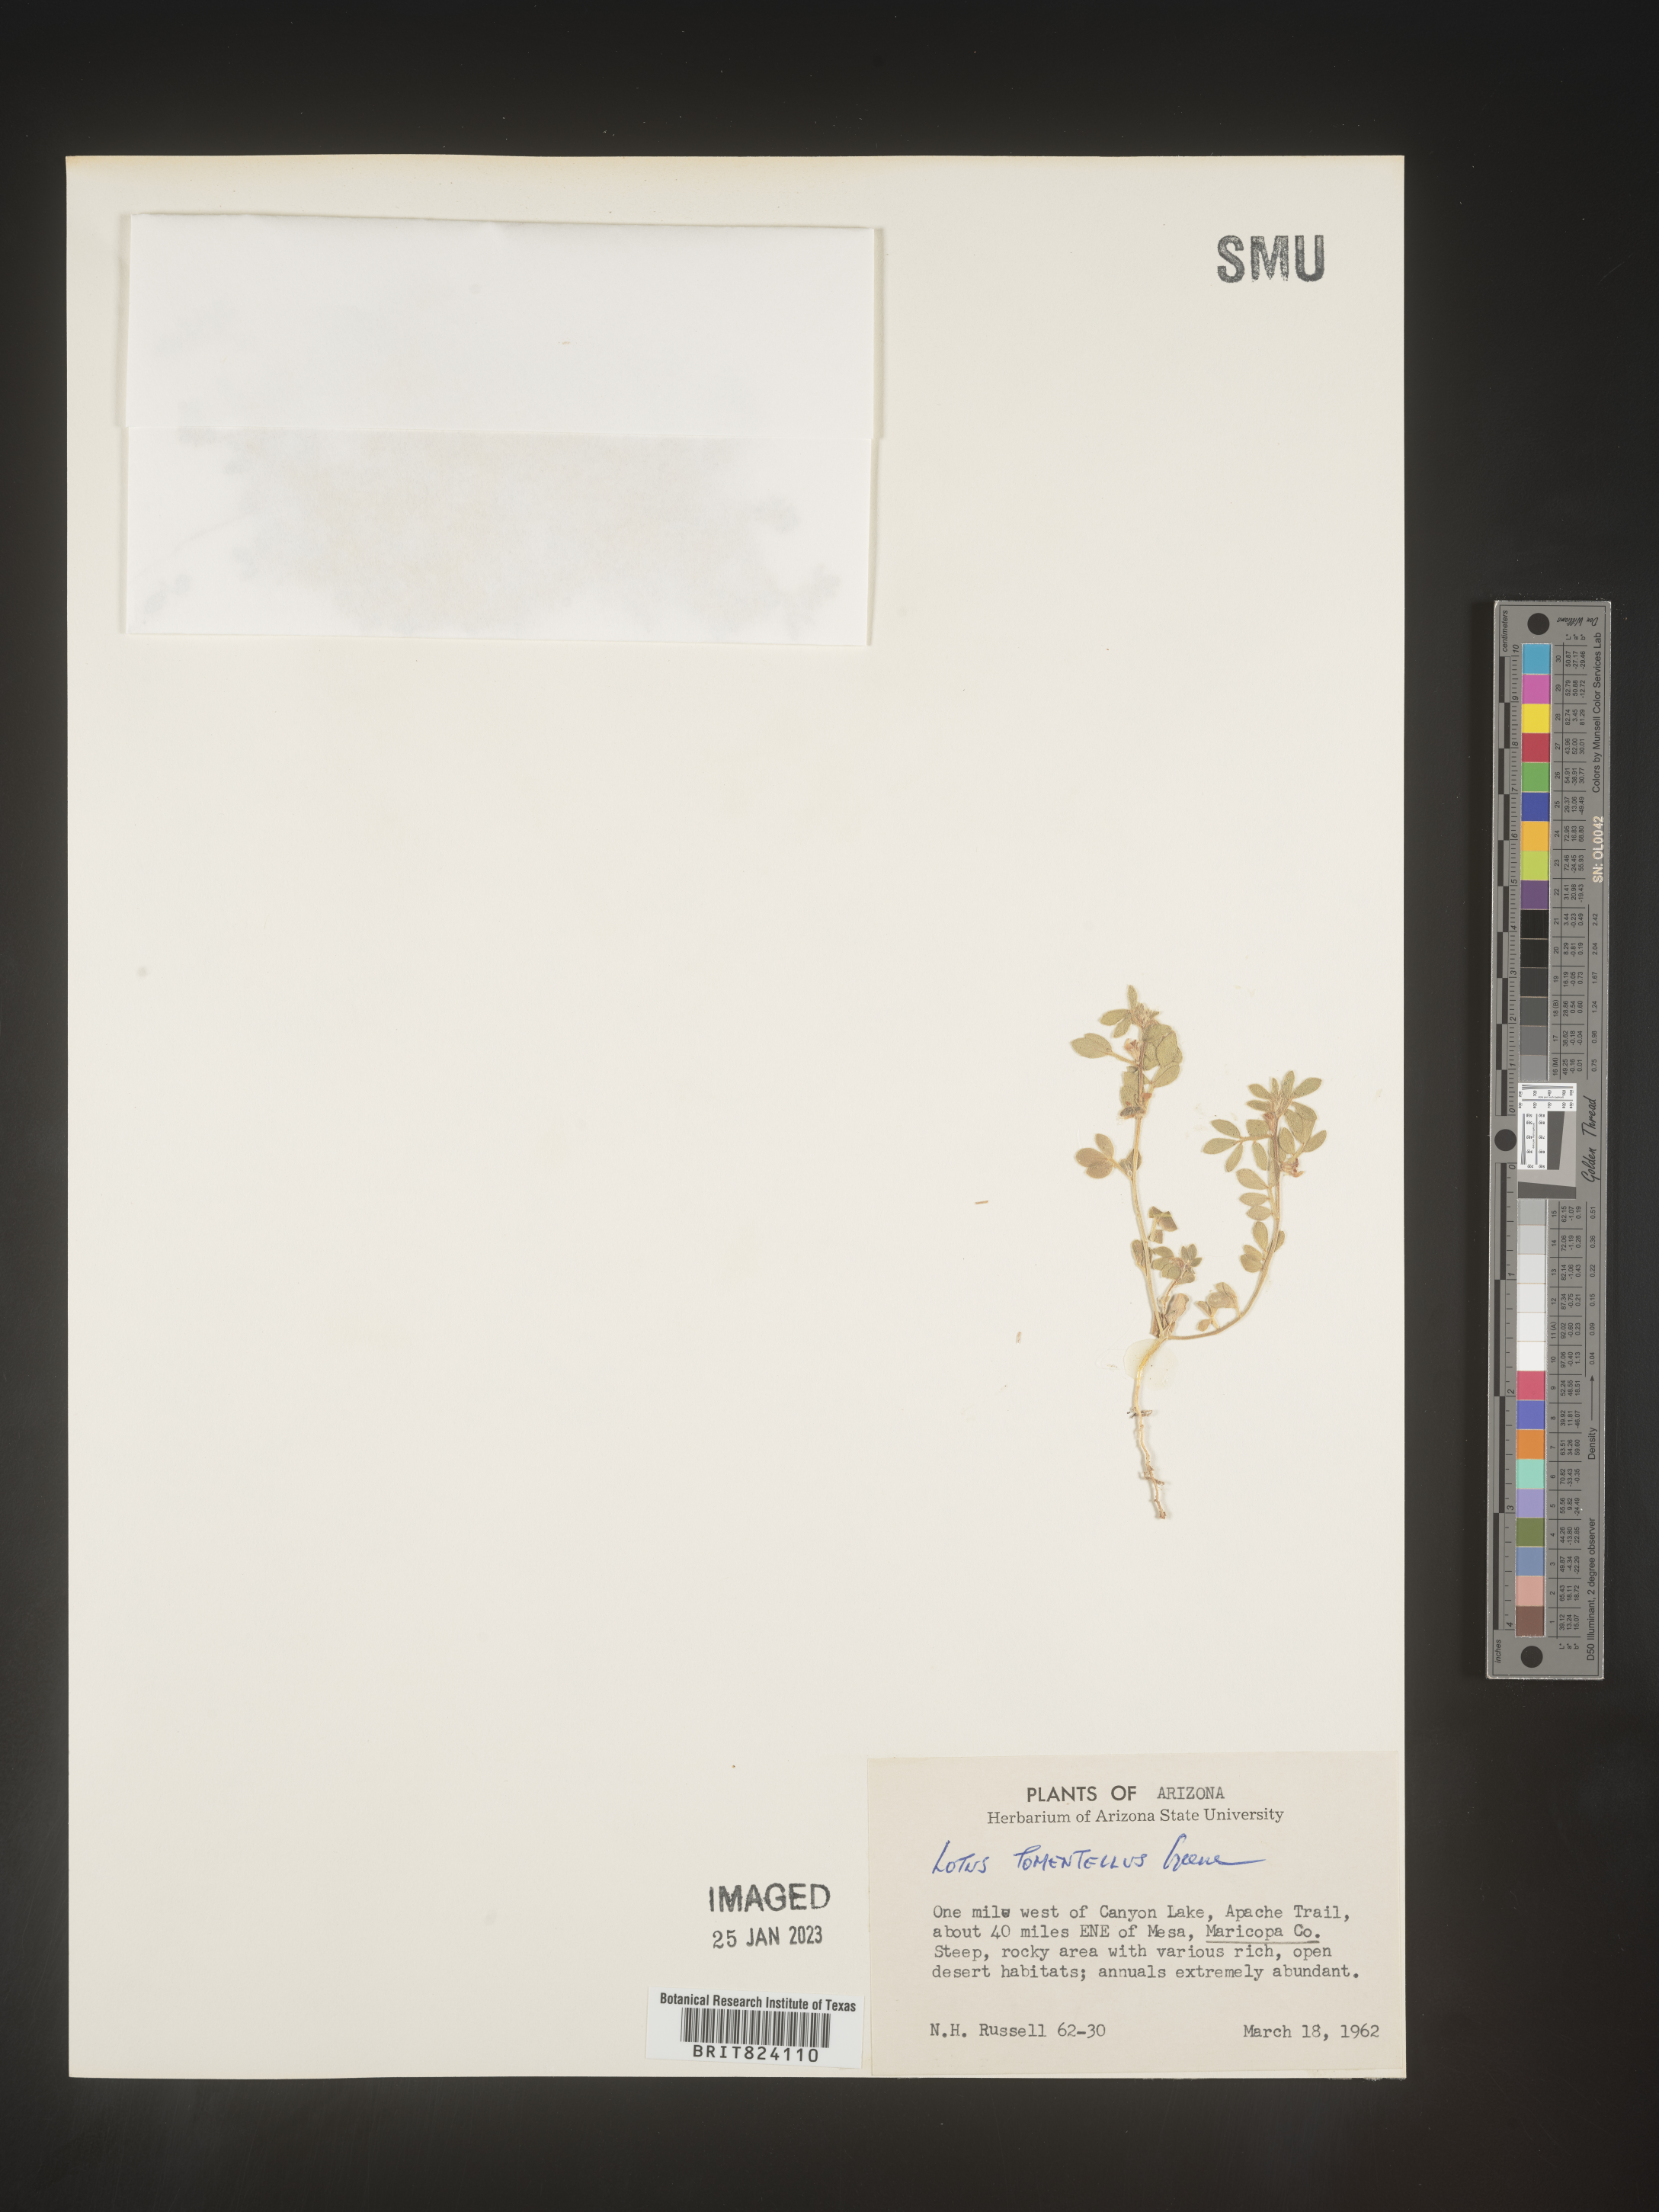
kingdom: Plantae
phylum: Tracheophyta
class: Magnoliopsida
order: Fabales
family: Fabaceae
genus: Acmispon
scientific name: Acmispon intricatus
